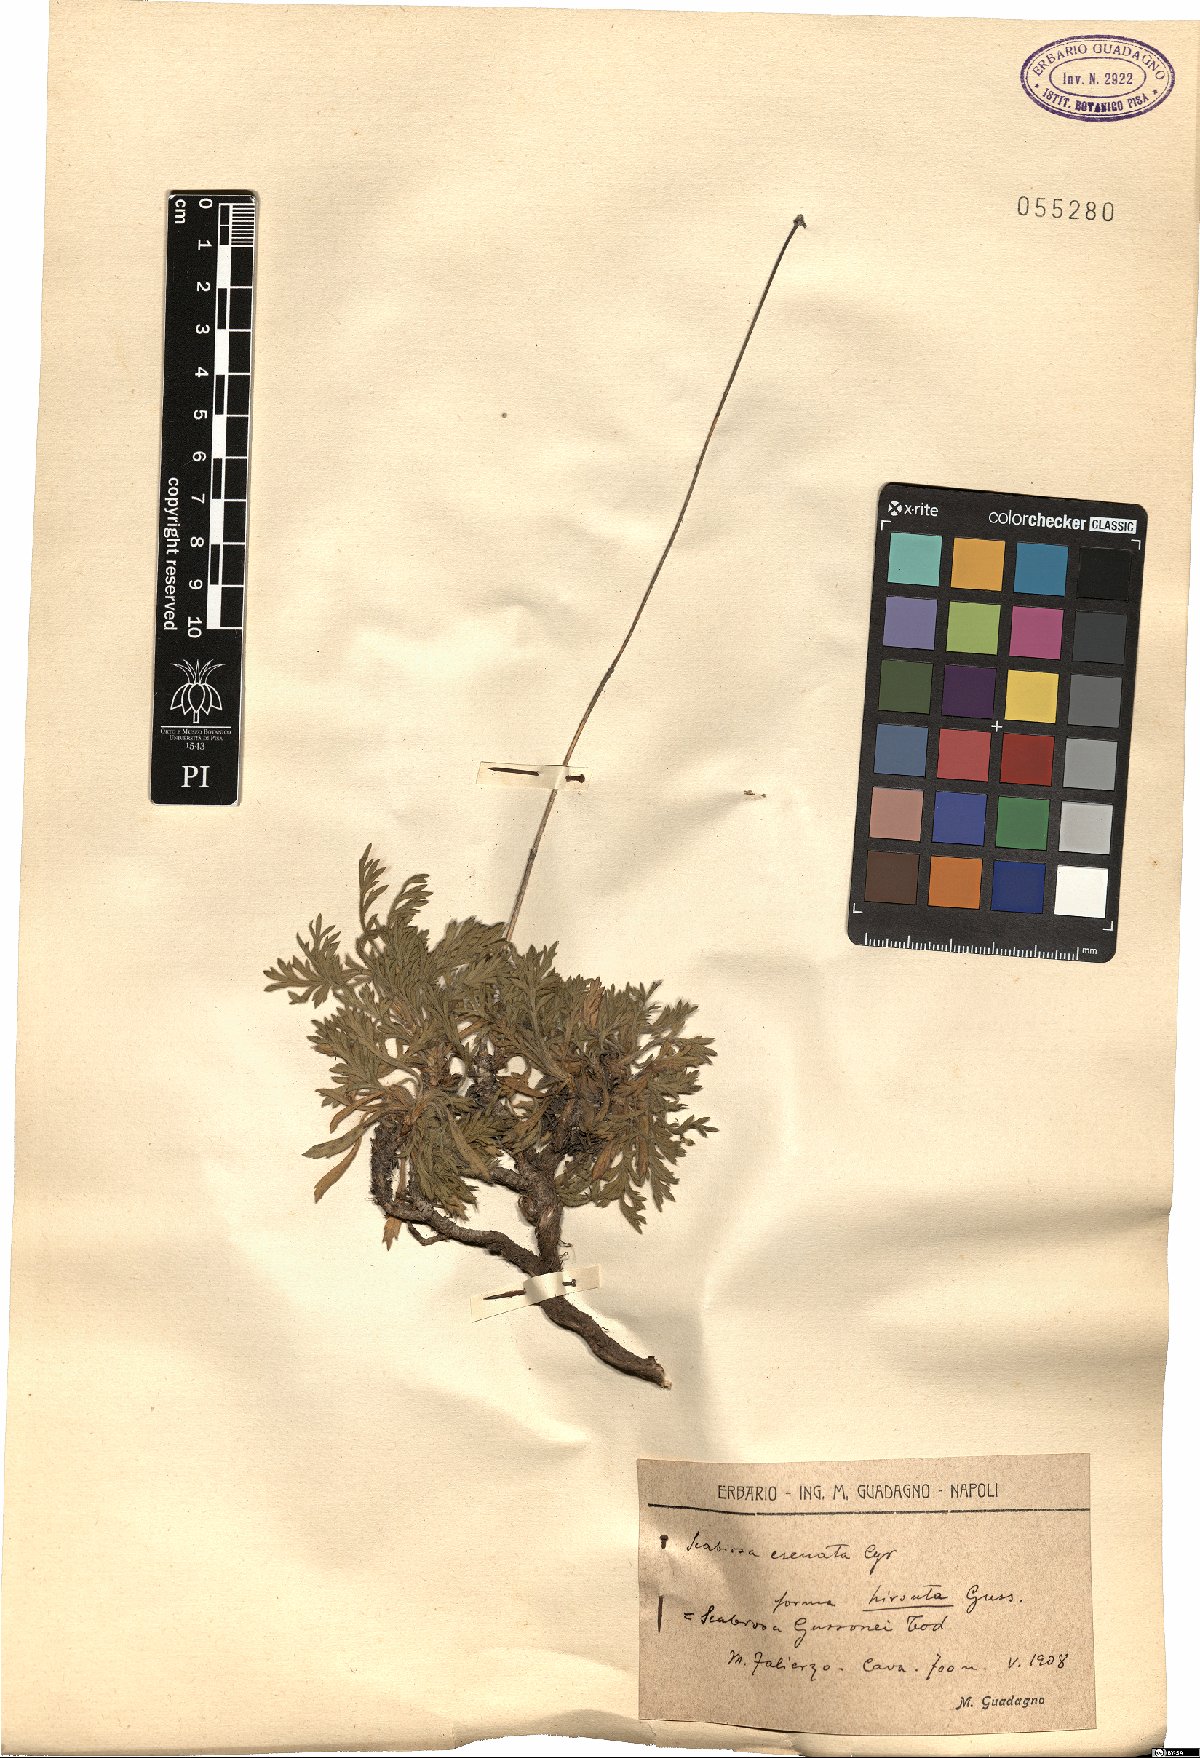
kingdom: Plantae
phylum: Tracheophyta
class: Magnoliopsida
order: Dipsacales
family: Caprifoliaceae
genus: Lomelosia
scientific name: Lomelosia crenata
